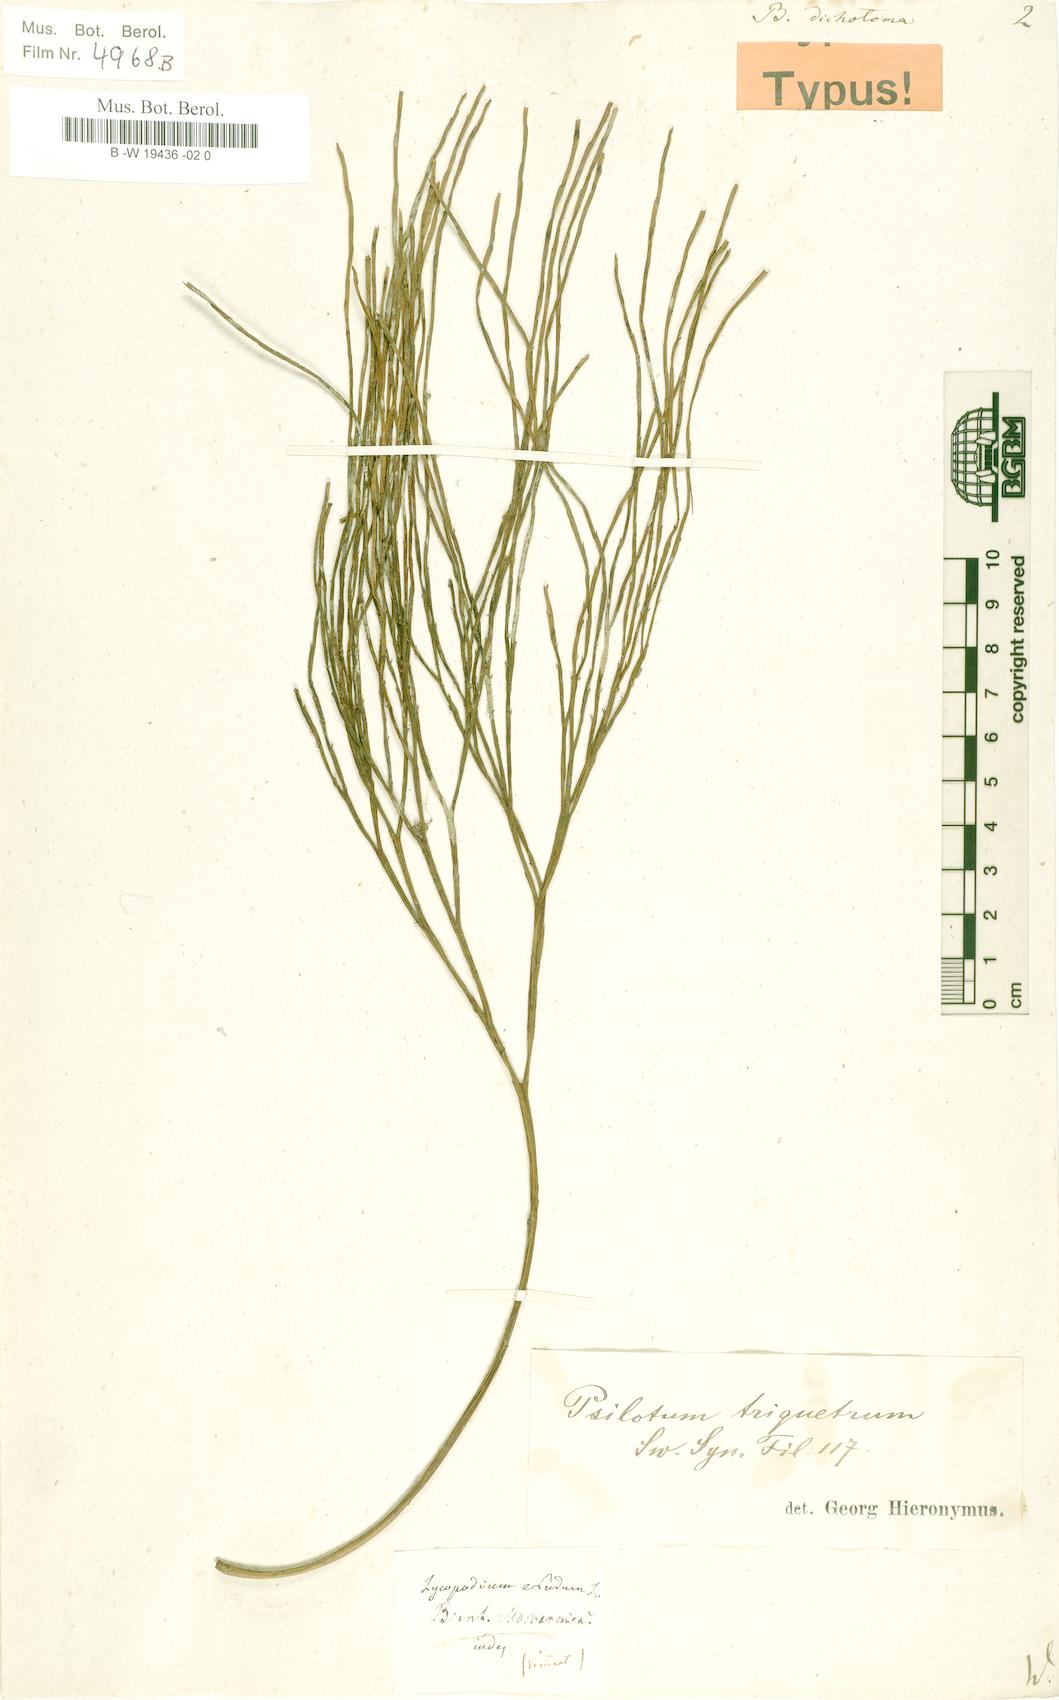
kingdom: Plantae
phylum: Tracheophyta
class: Polypodiopsida
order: Psilotales
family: Psilotaceae
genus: Psilotum
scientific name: Psilotum nudum
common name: Skeleton fork fern
